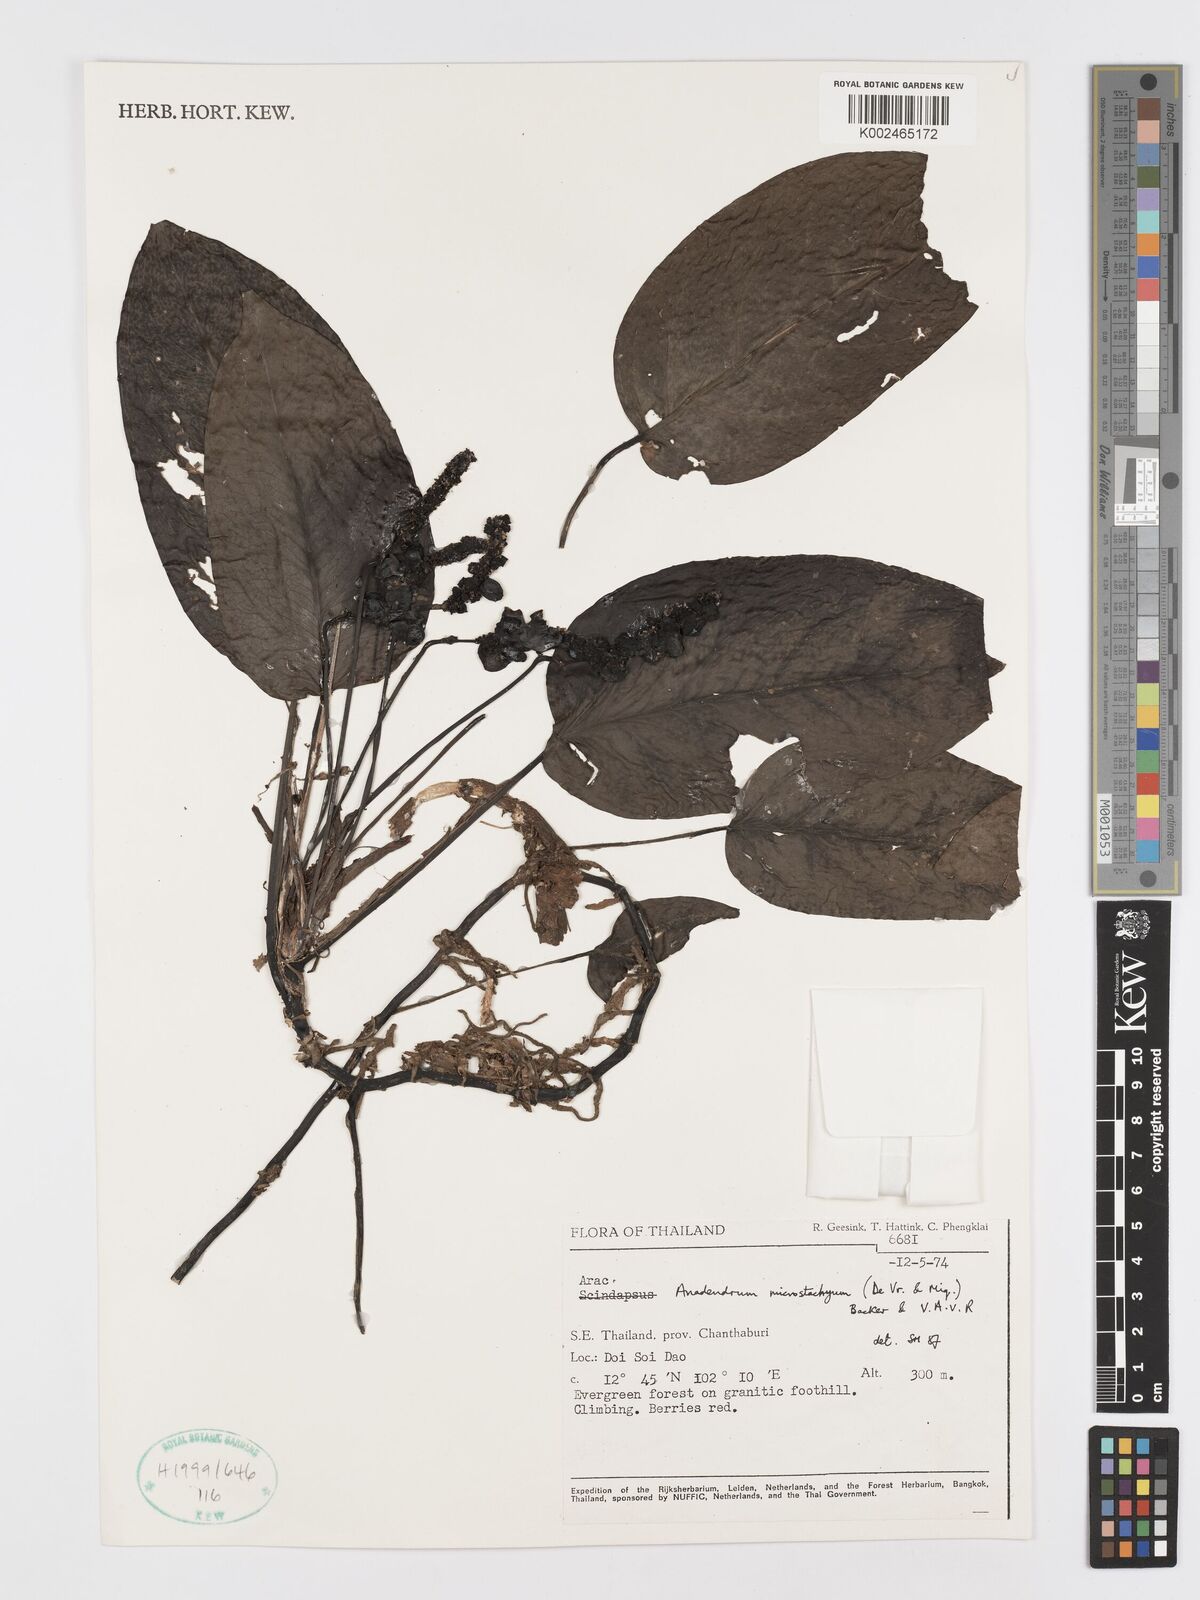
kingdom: Plantae
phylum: Tracheophyta
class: Liliopsida
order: Alismatales
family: Araceae
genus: Anadendrum
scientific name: Anadendrum microstachyum
